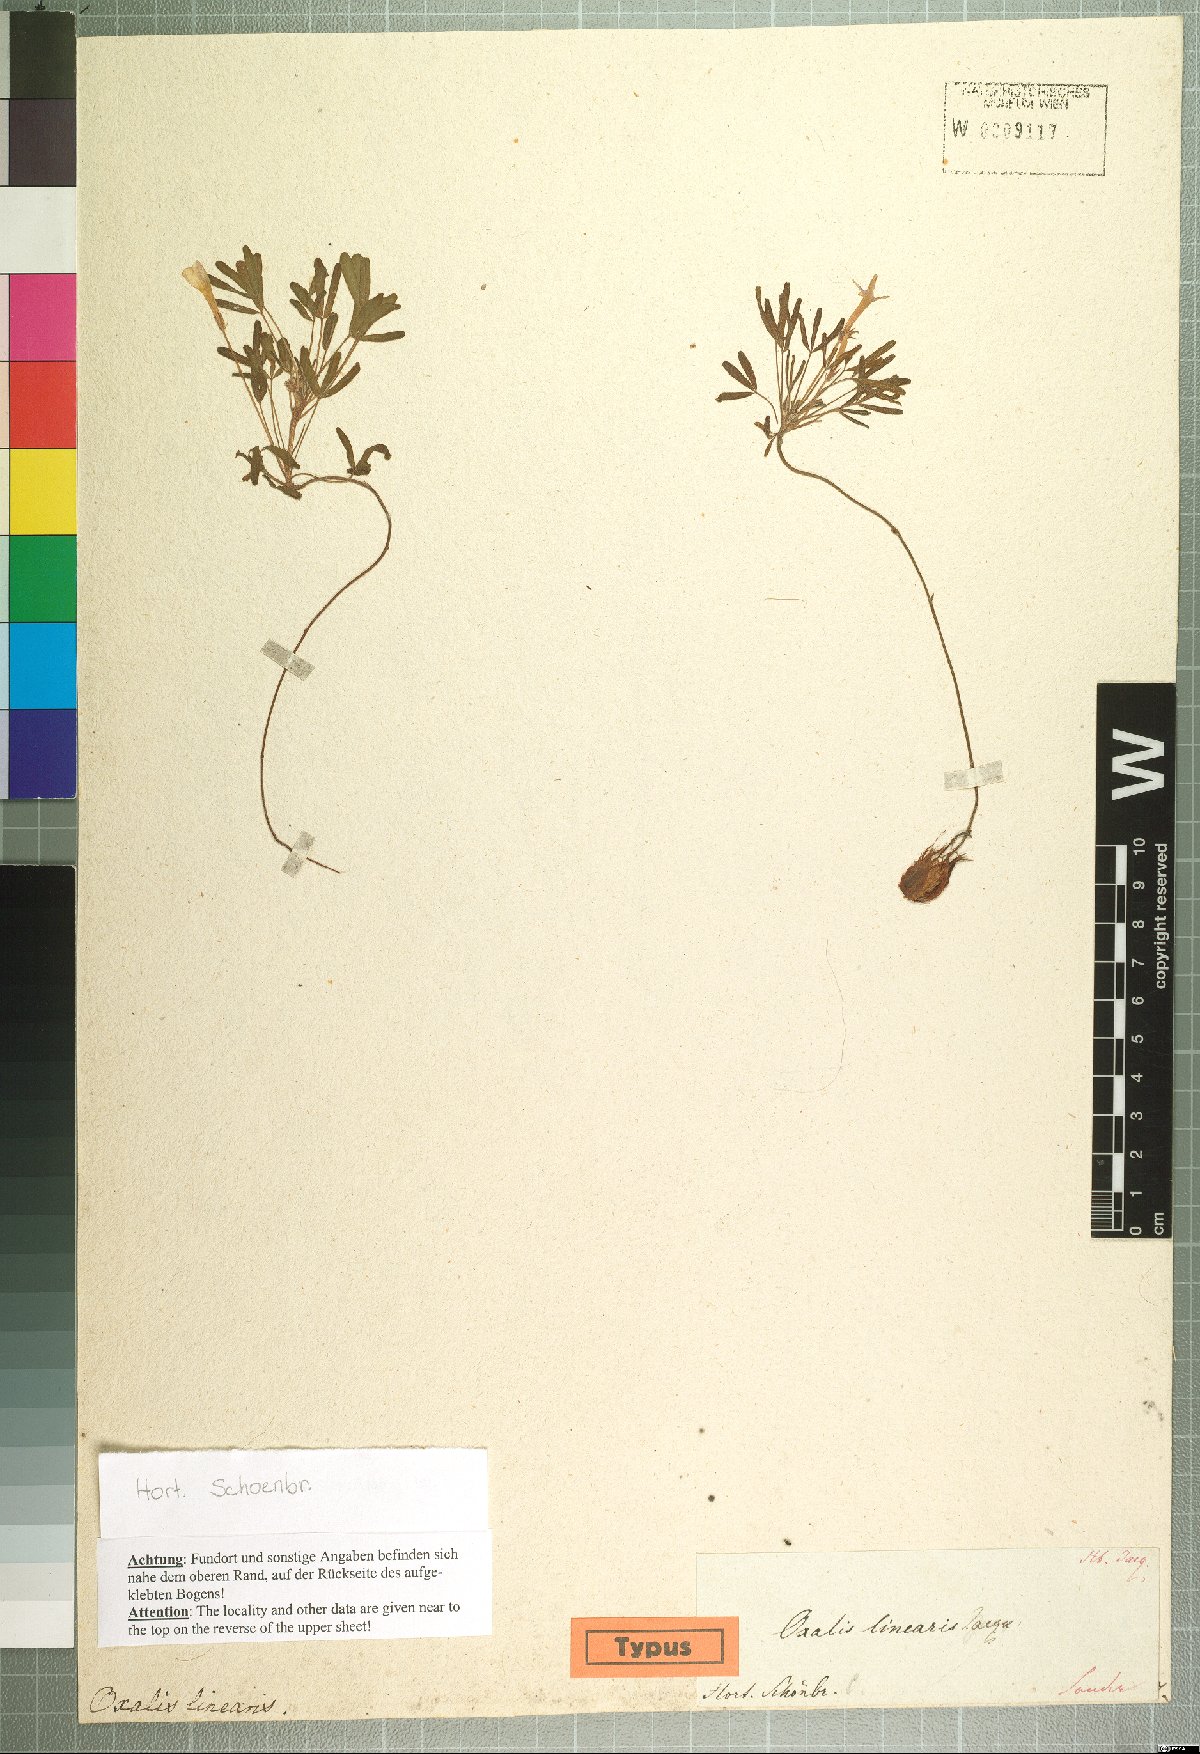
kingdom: Plantae
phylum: Tracheophyta
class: Magnoliopsida
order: Oxalidales
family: Oxalidaceae
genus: Oxalis
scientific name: Oxalis linearis
